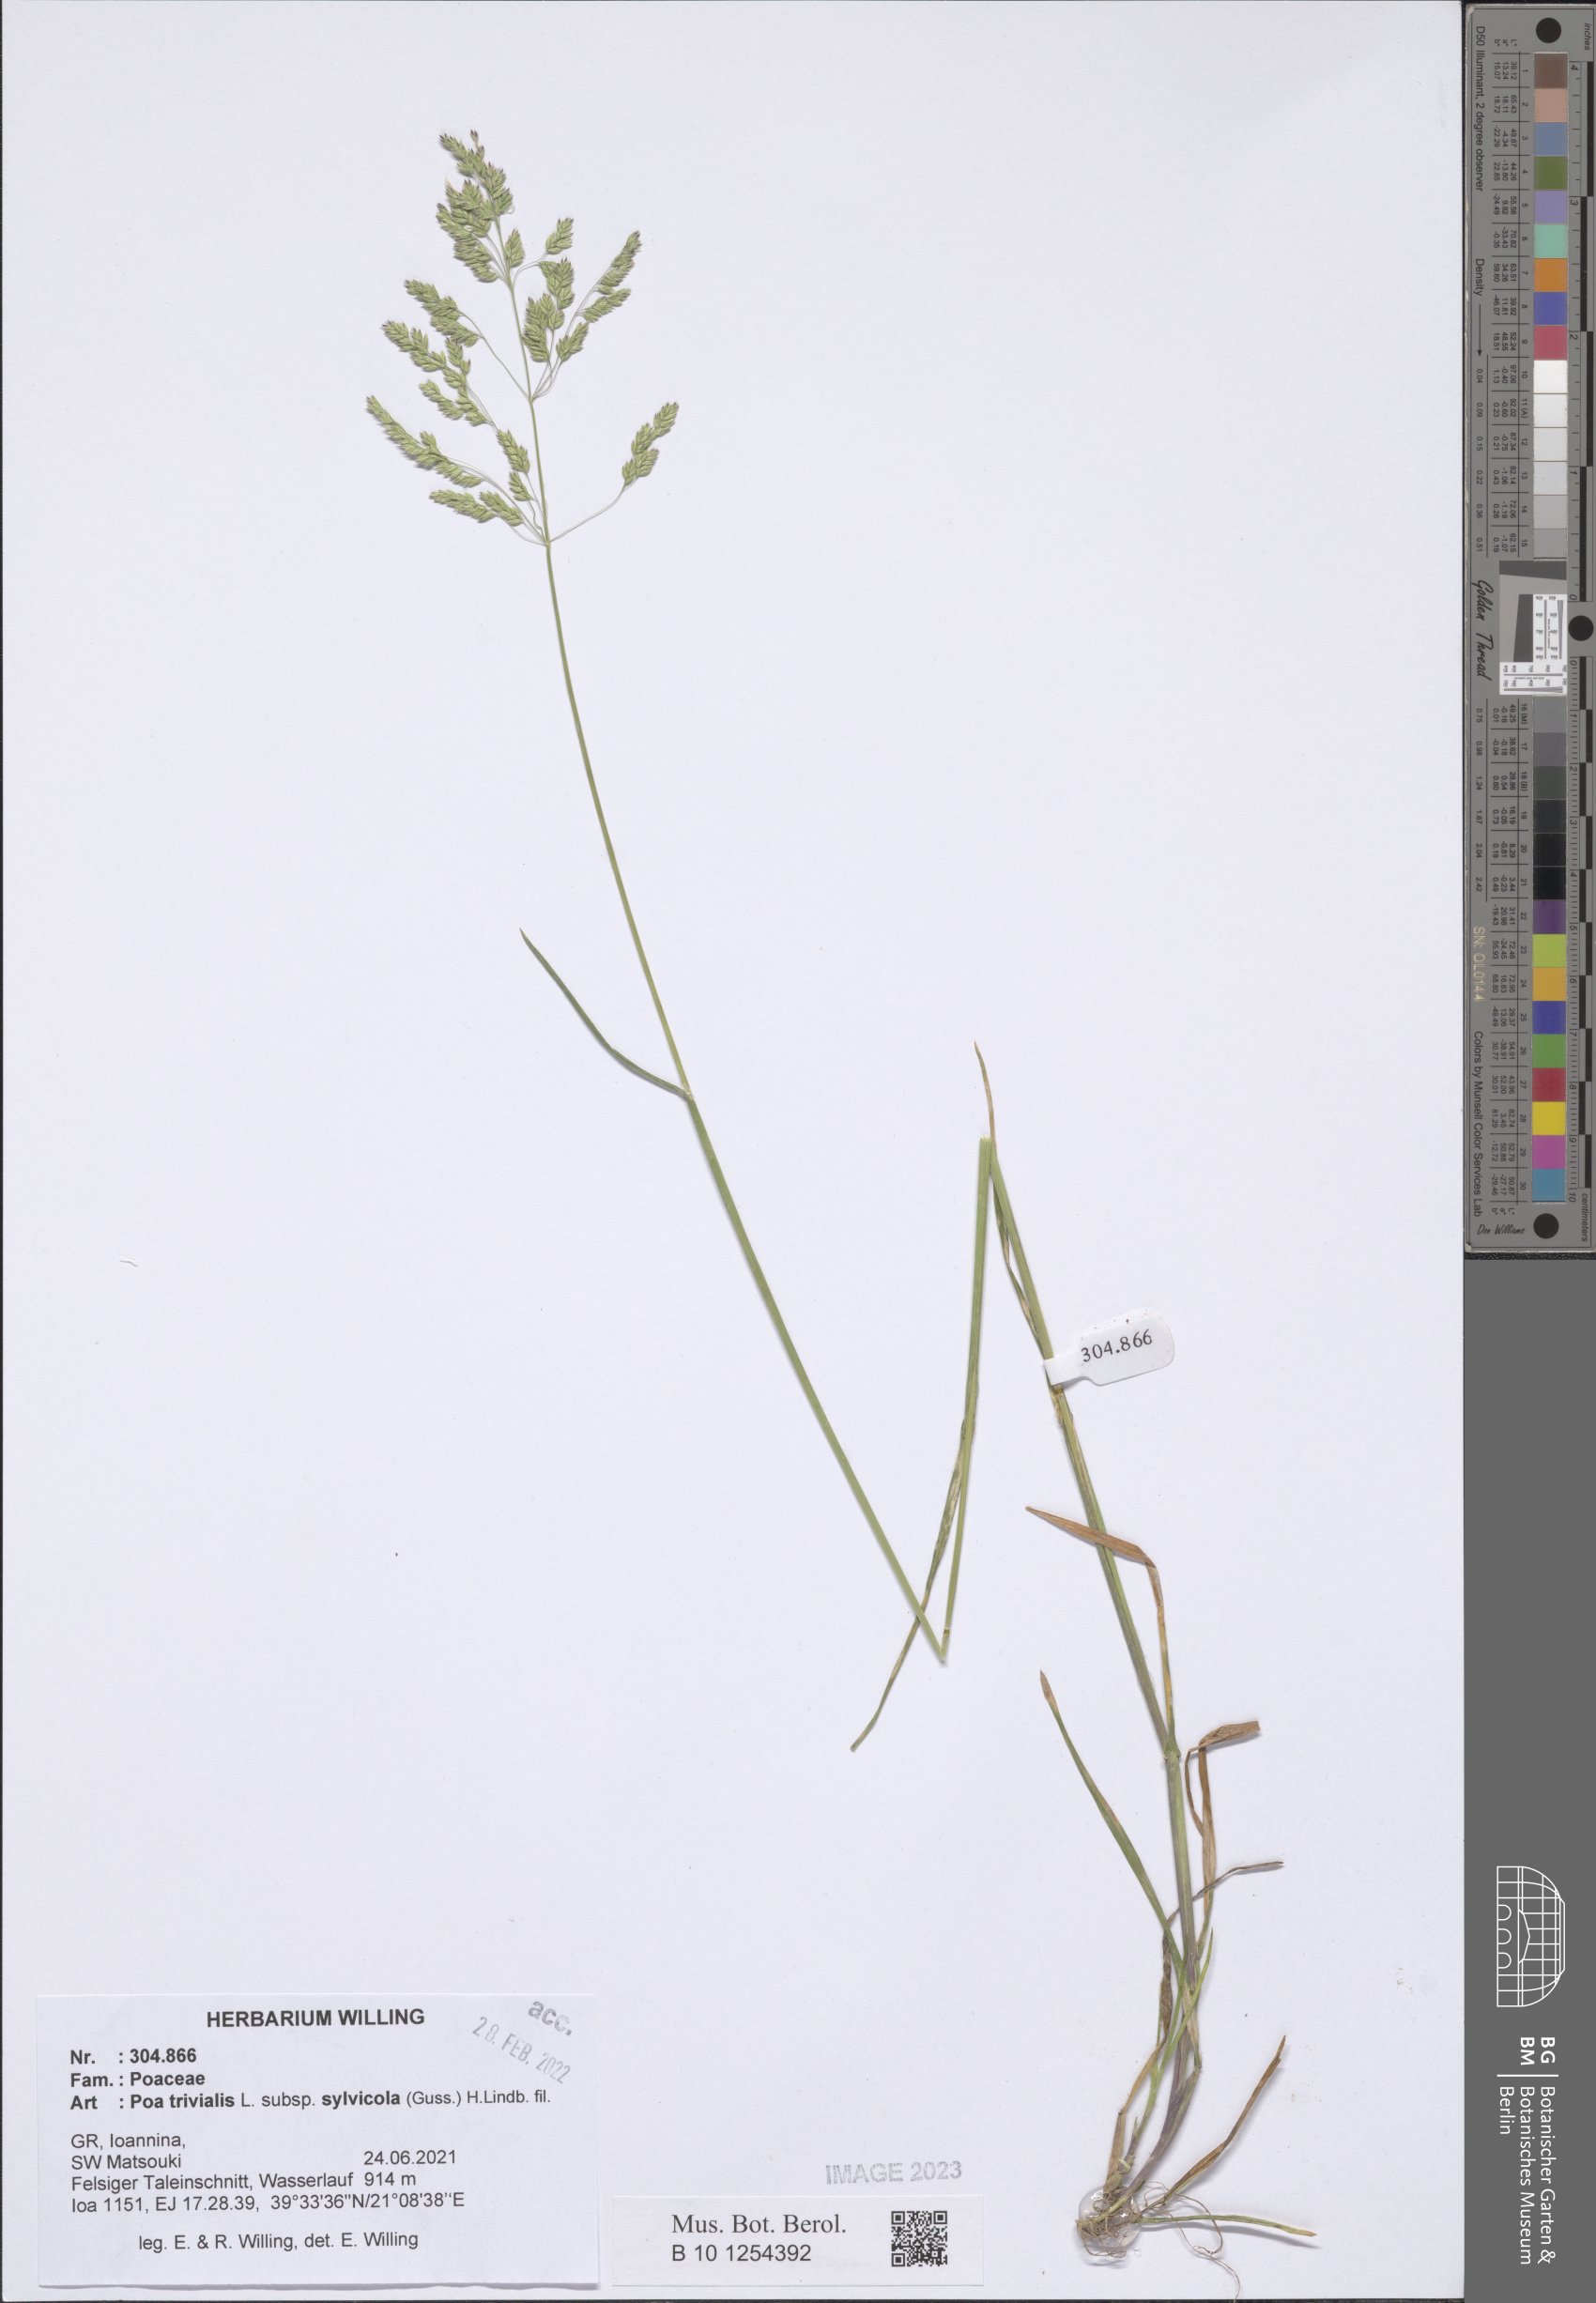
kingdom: Plantae
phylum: Tracheophyta
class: Liliopsida
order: Poales
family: Poaceae
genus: Poa
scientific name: Poa trivialis
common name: Rough bluegrass
